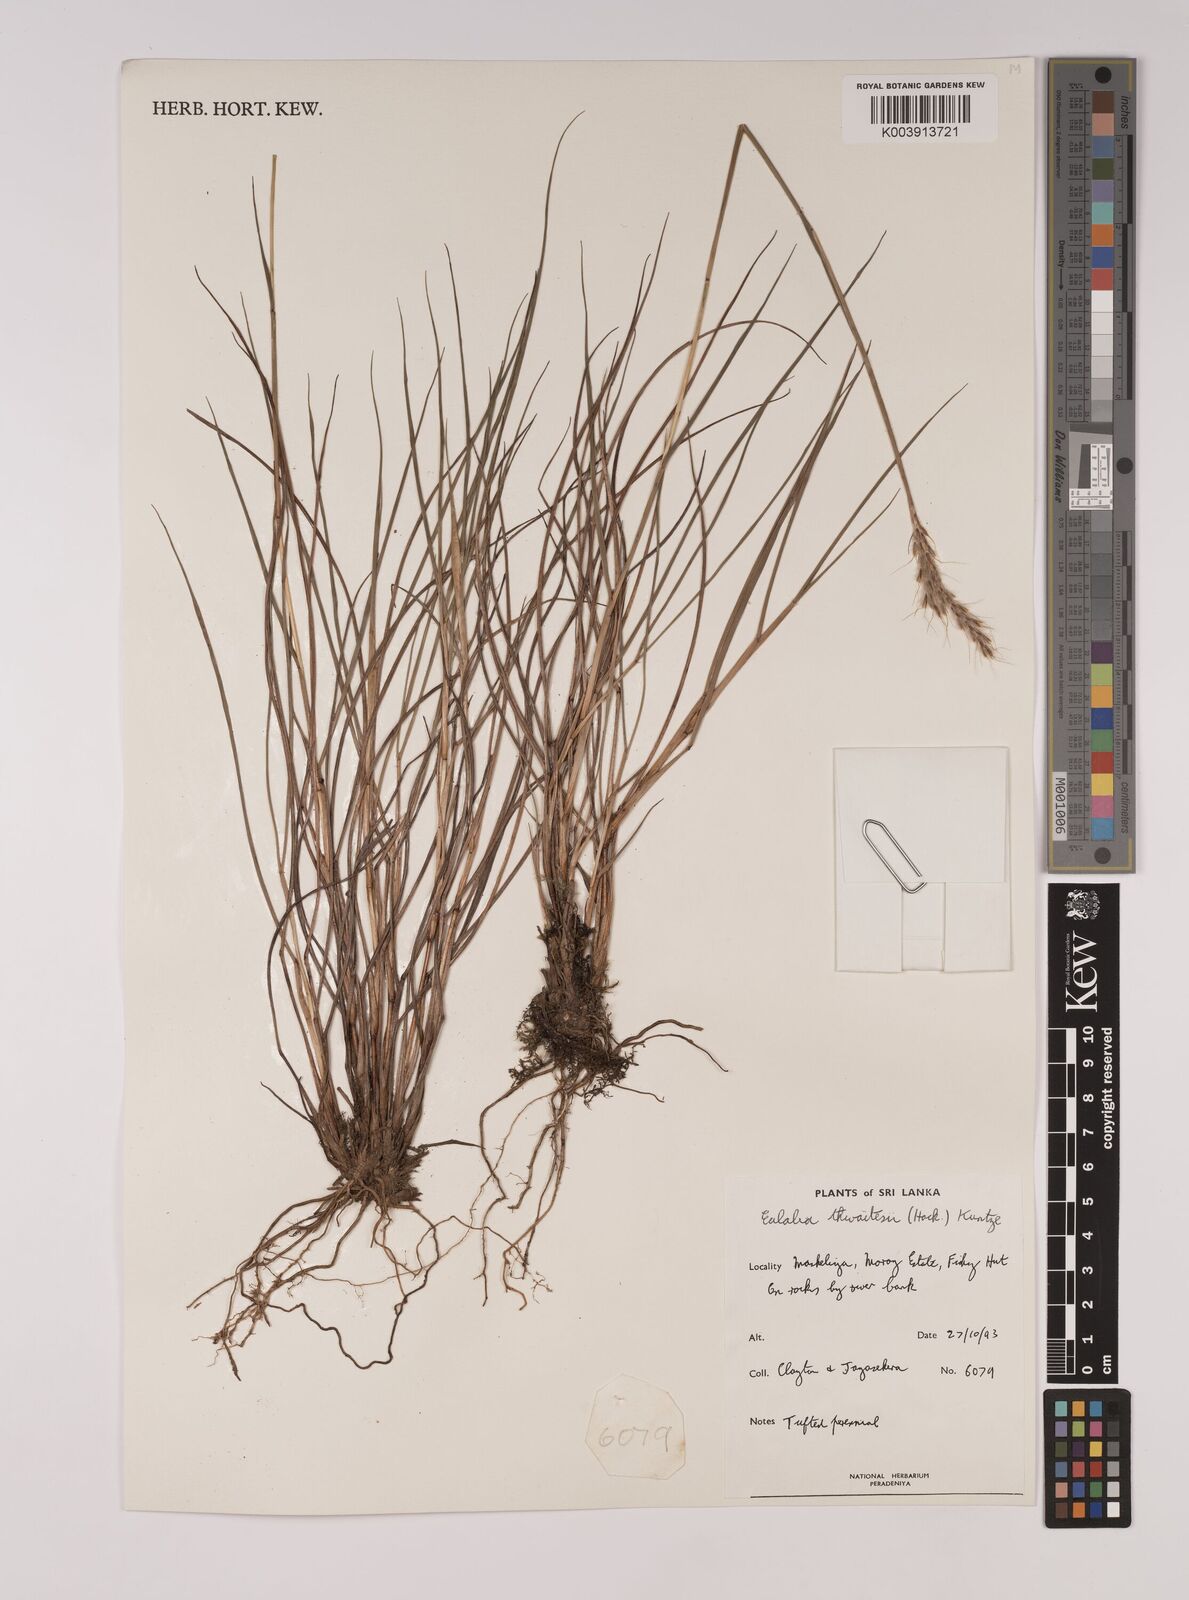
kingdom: Plantae
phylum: Tracheophyta
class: Liliopsida
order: Poales
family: Poaceae
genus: Eulalia
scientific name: Eulalia thwaitesii
